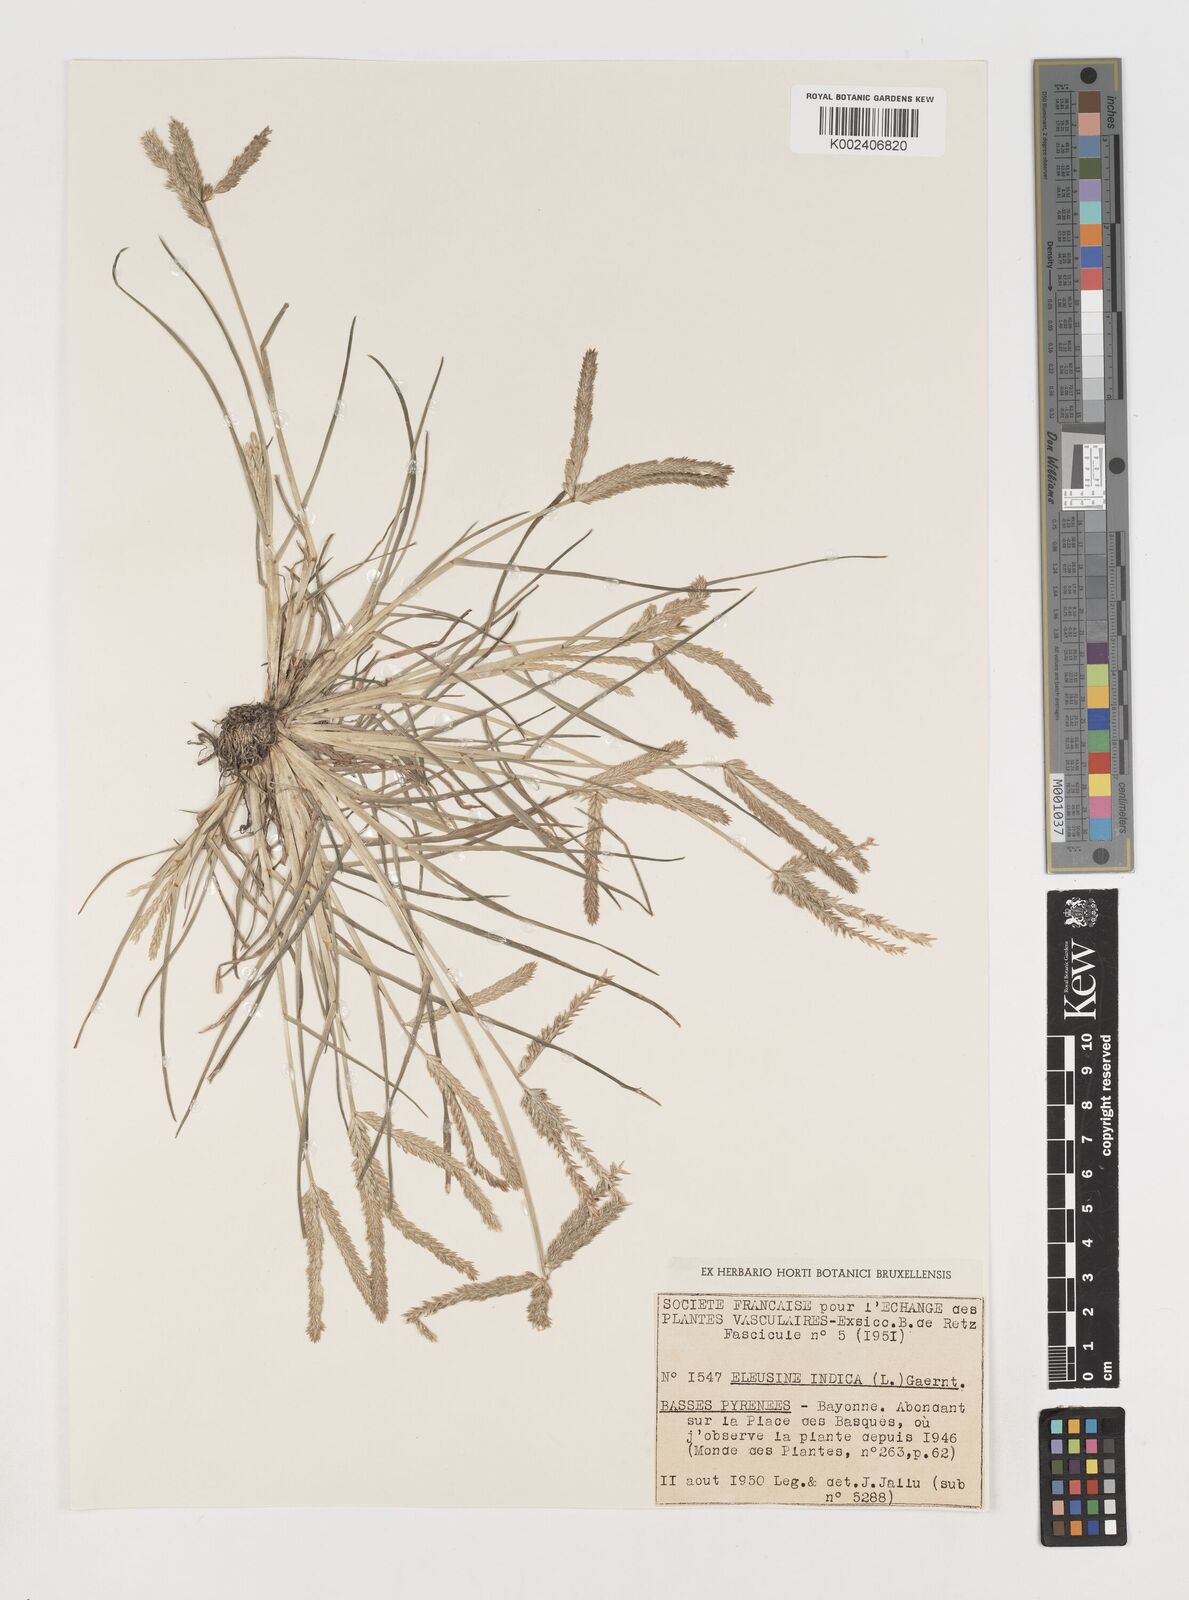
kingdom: Plantae
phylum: Tracheophyta
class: Liliopsida
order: Poales
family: Poaceae
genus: Eleusine
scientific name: Eleusine indica
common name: Yard-grass
